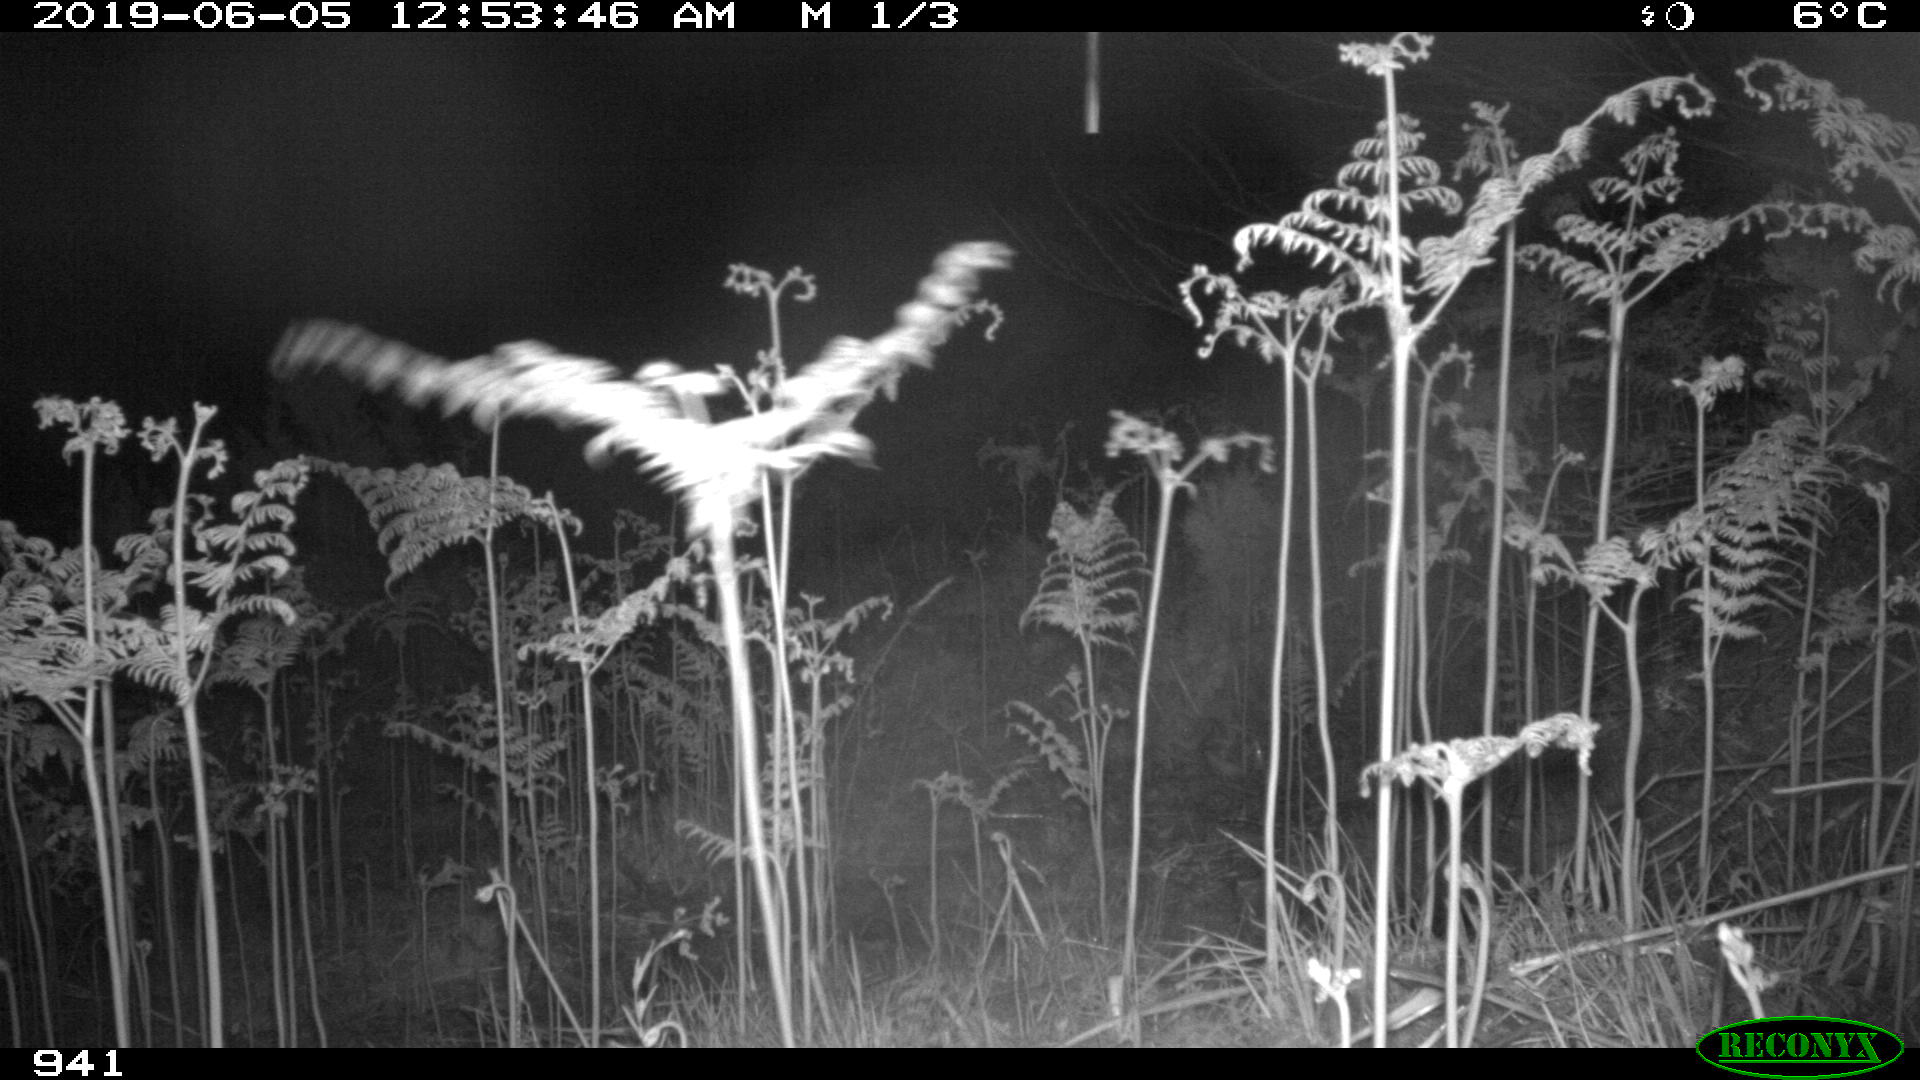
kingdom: Animalia
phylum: Chordata
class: Mammalia
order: Perissodactyla
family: Equidae
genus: Equus
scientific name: Equus caballus
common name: Horse
